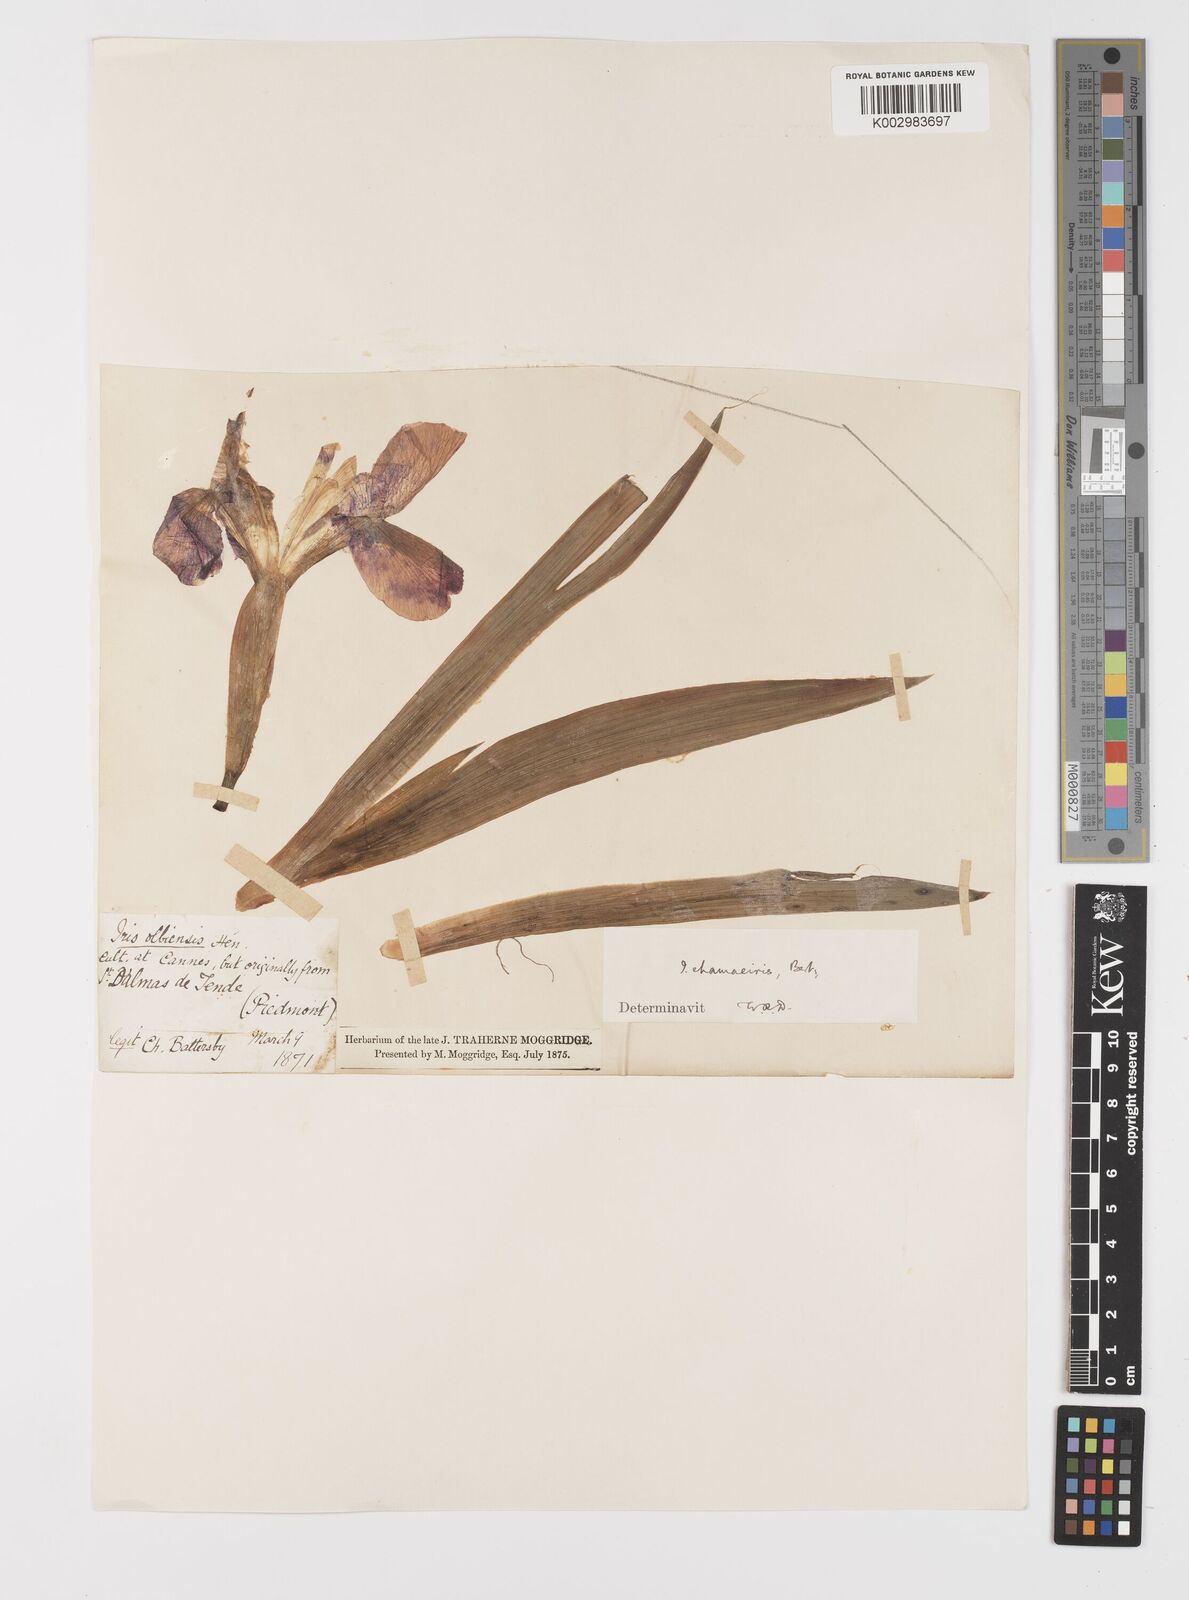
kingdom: Plantae
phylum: Tracheophyta
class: Liliopsida
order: Asparagales
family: Iridaceae
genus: Iris
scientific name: Iris lutescens
